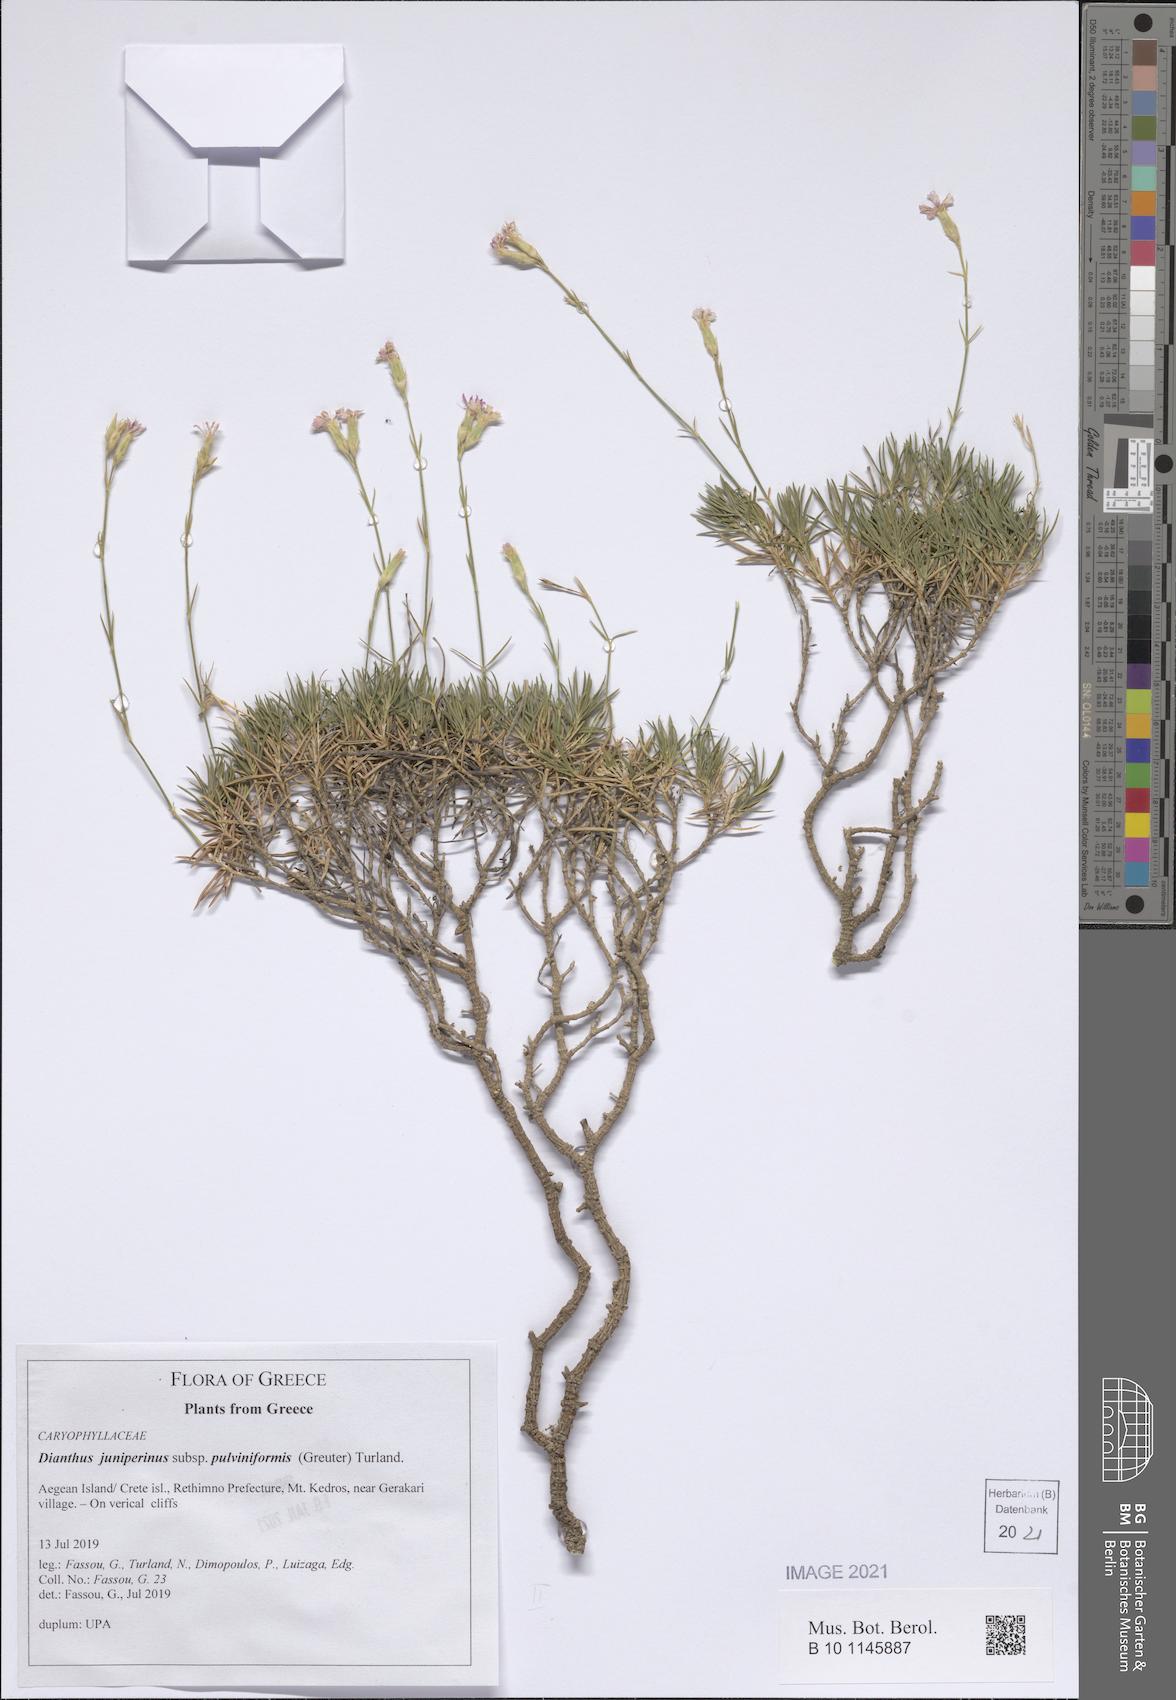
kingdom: Plantae
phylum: Tracheophyta
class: Magnoliopsida
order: Caryophyllales
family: Caryophyllaceae
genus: Dianthus
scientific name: Dianthus juniperinus
